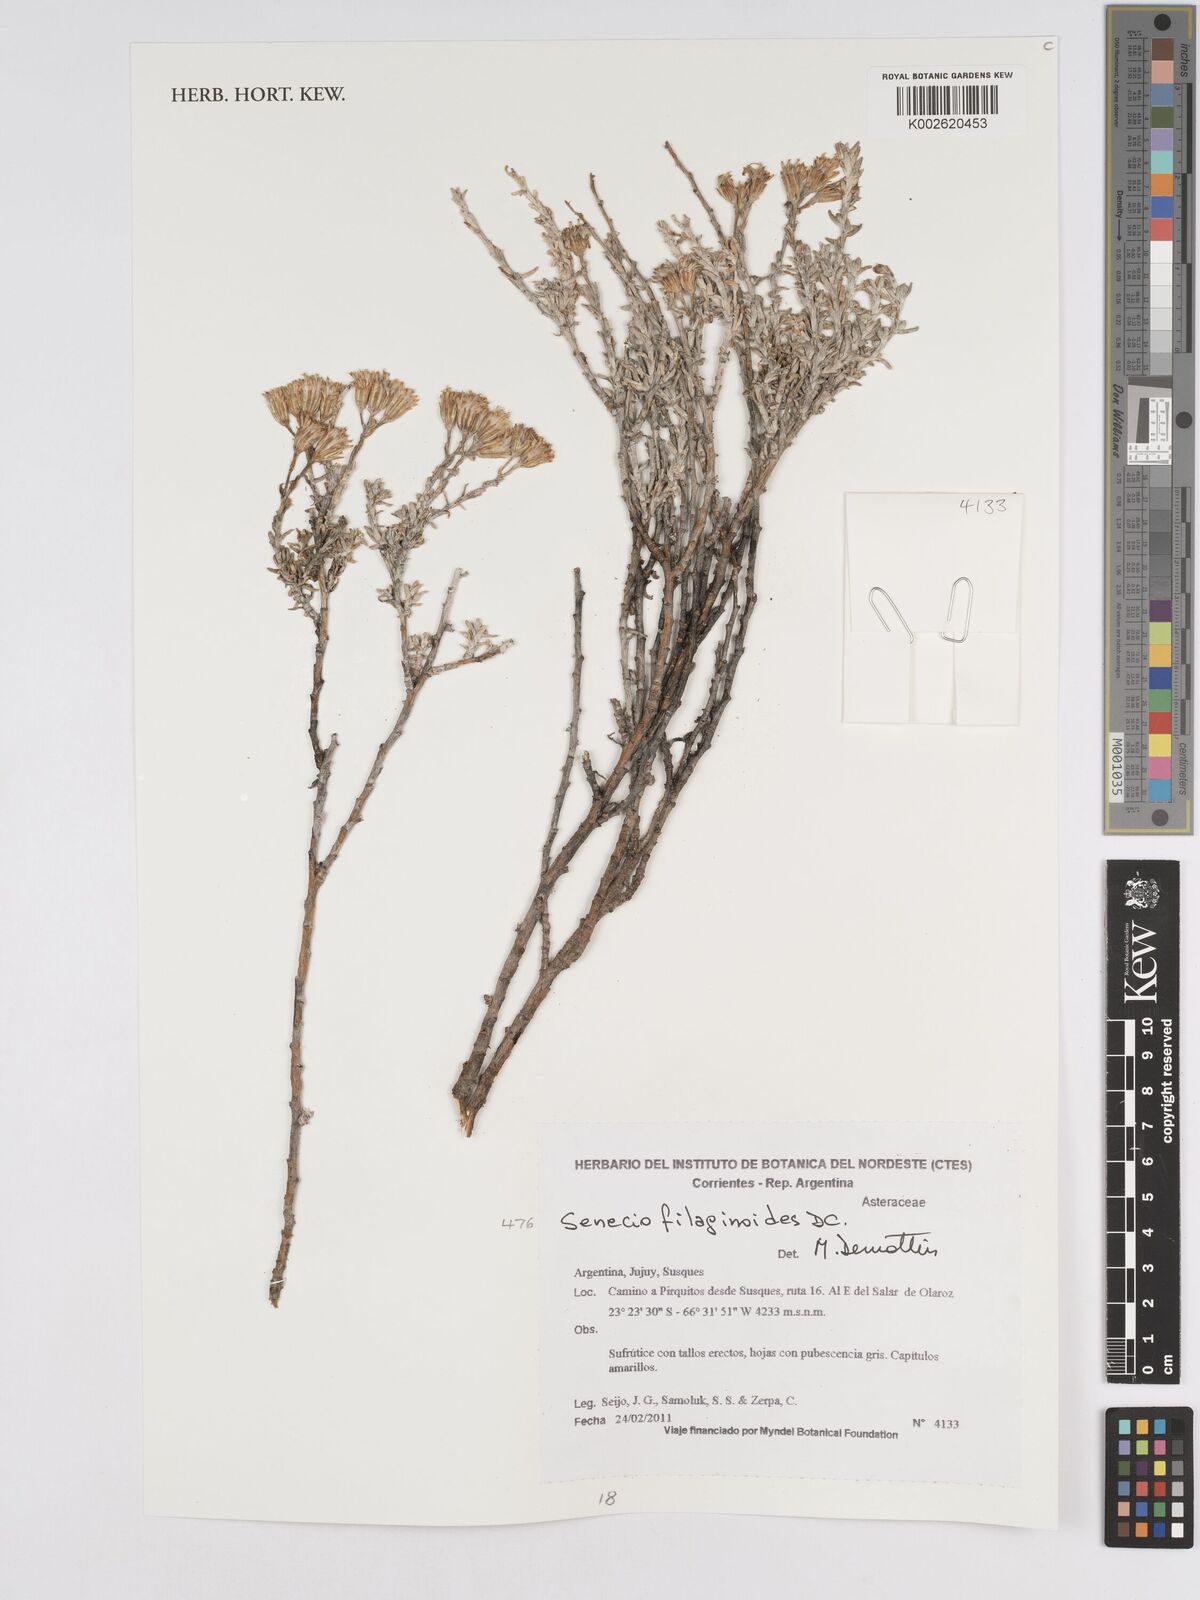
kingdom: Plantae
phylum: Tracheophyta
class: Magnoliopsida
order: Asterales
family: Asteraceae
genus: Senecio
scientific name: Senecio filaginoides
